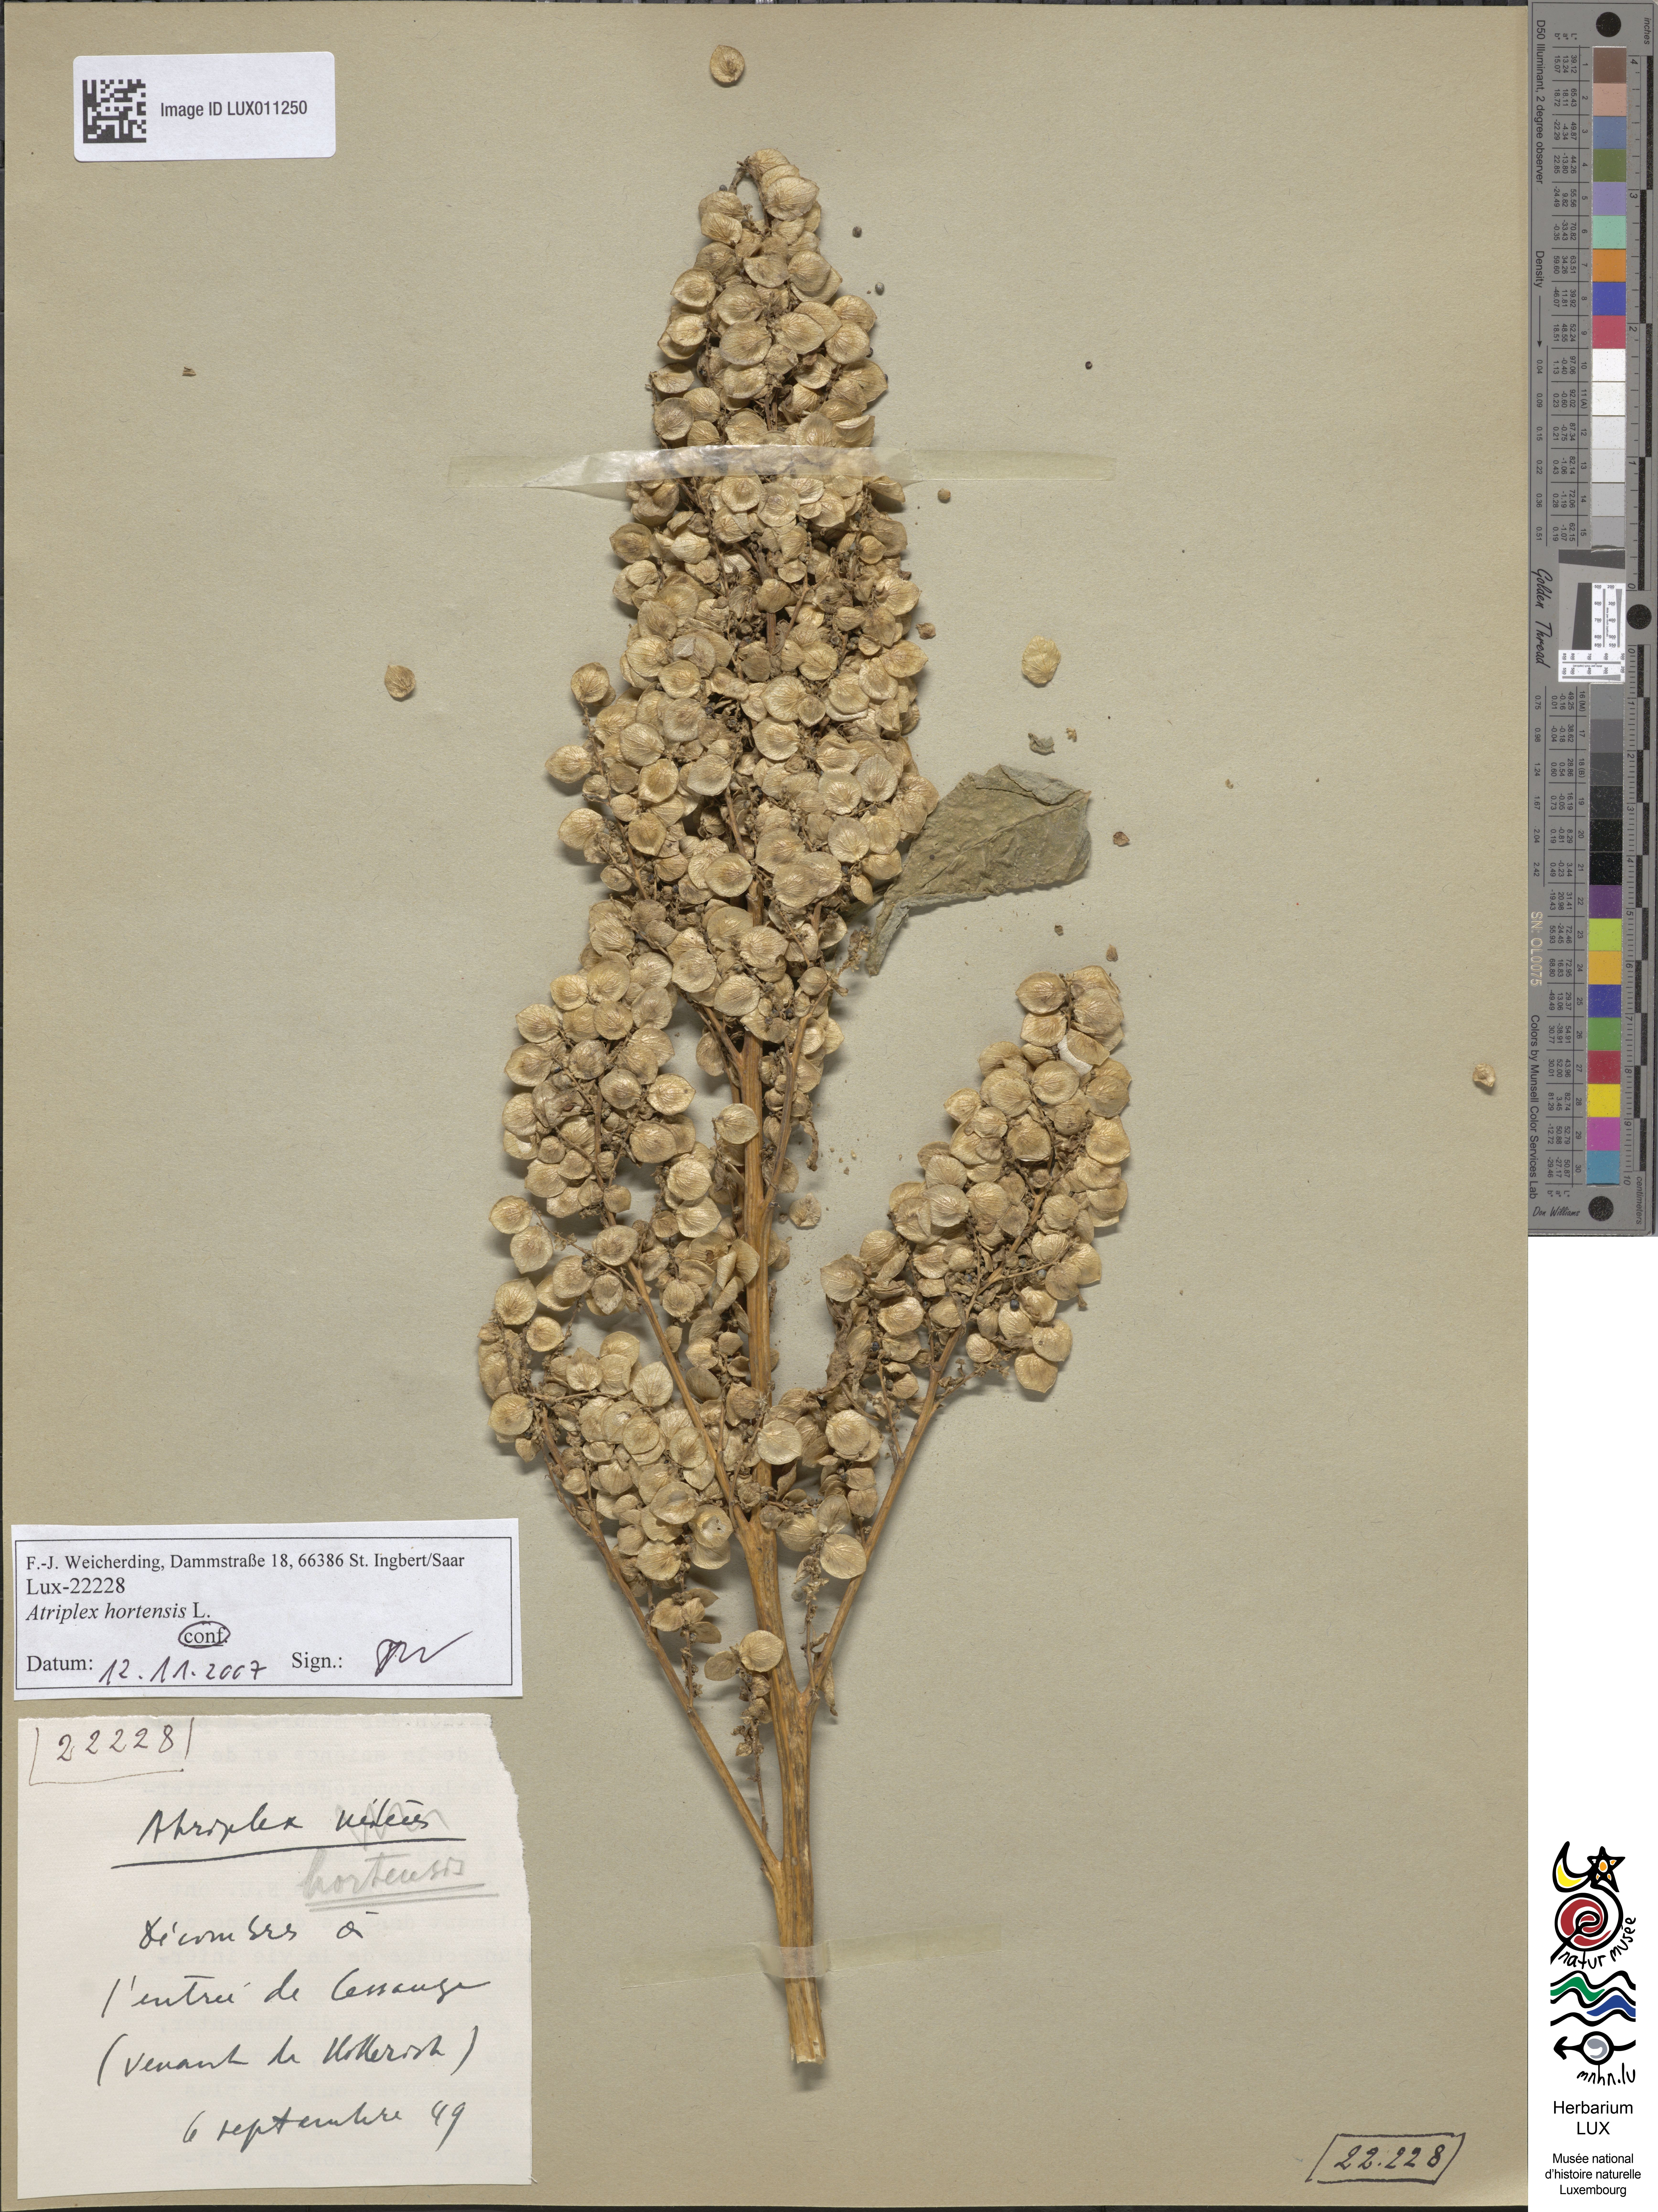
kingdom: Plantae
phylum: Tracheophyta
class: Magnoliopsida
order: Caryophyllales
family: Amaranthaceae
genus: Atriplex
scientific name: Atriplex hortensis
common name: Garden orache
